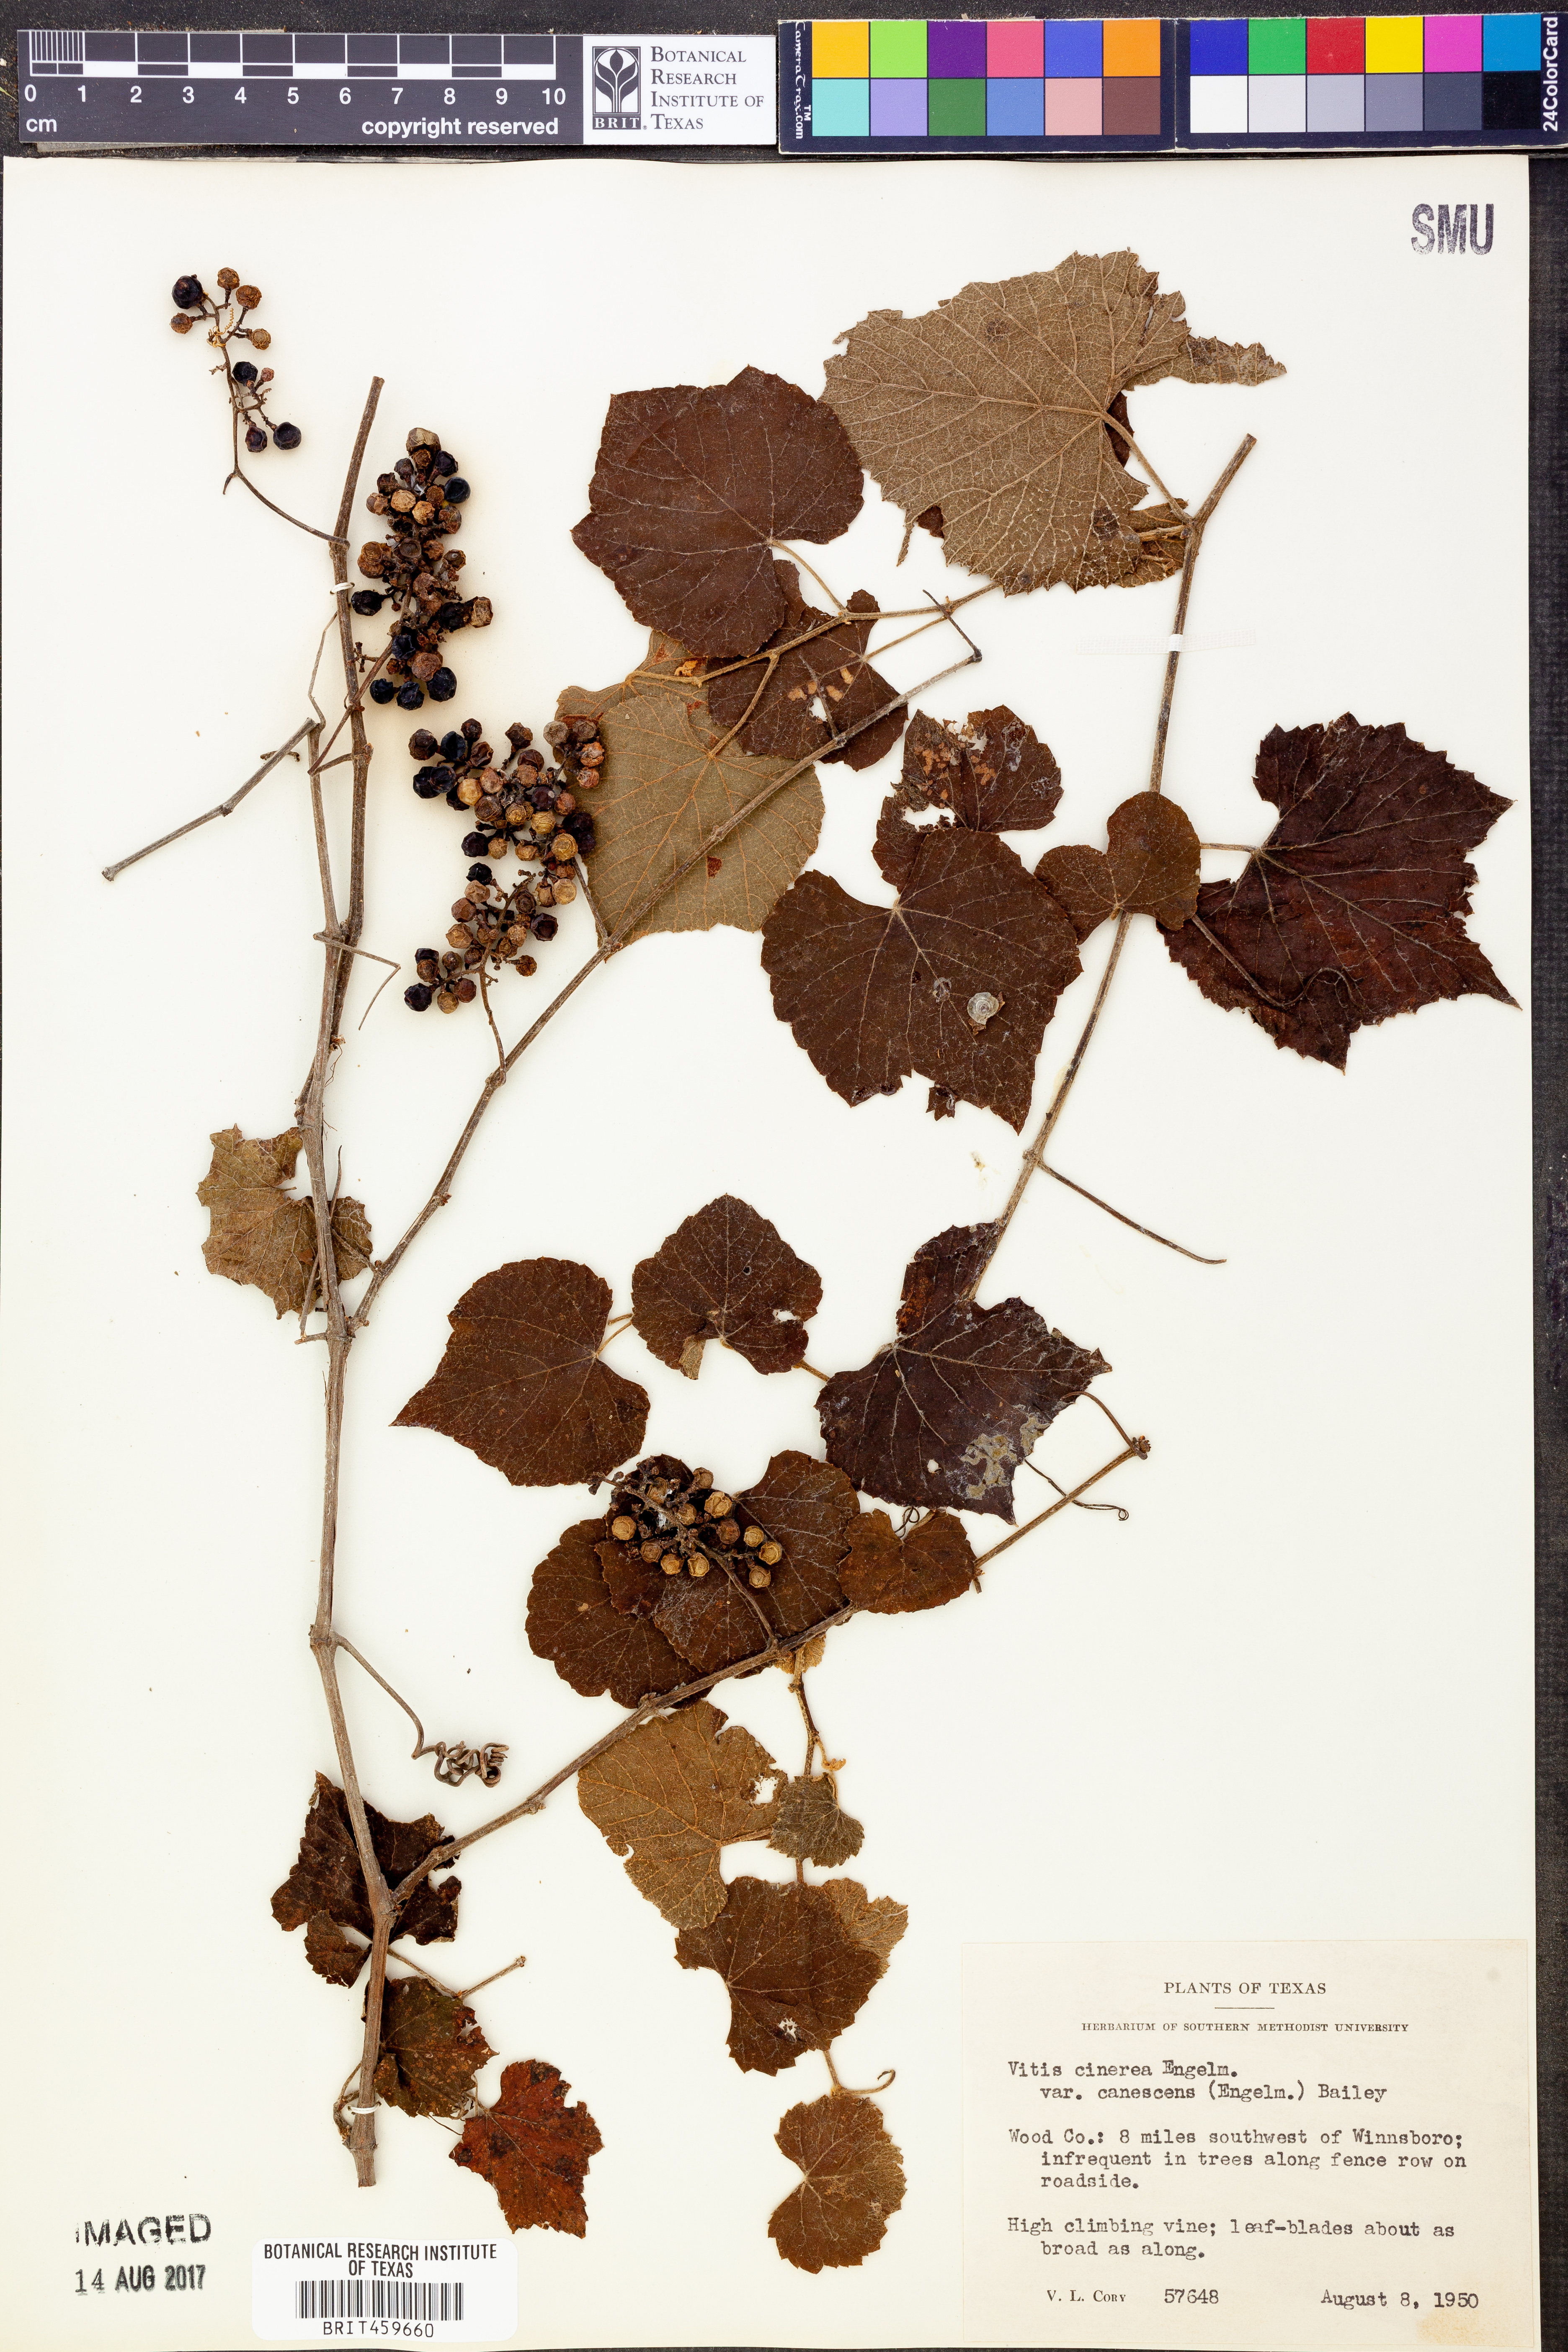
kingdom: Plantae
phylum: Tracheophyta
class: Magnoliopsida
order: Vitales
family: Vitaceae
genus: Vitis
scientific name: Vitis cinerea
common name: Ashy grape
